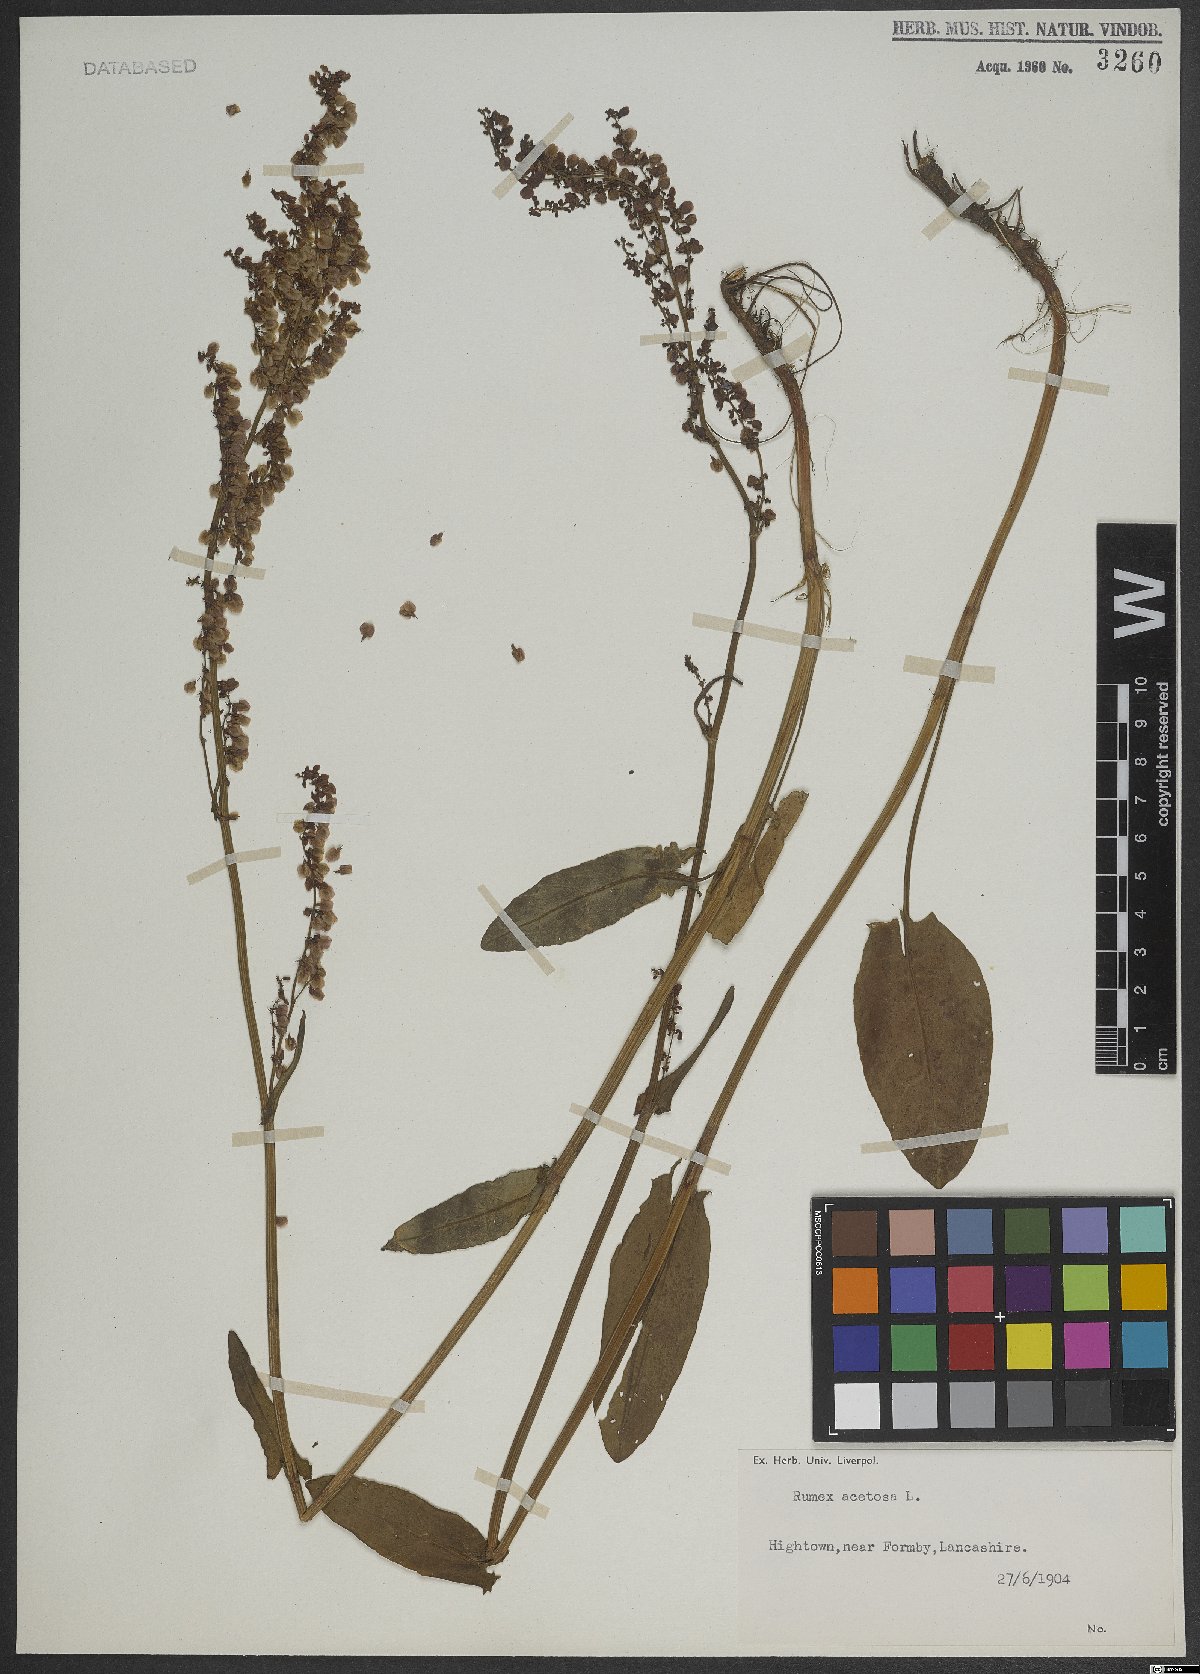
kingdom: Plantae
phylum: Tracheophyta
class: Magnoliopsida
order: Caryophyllales
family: Polygonaceae
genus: Rumex
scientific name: Rumex acetosa
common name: Garden sorrel
